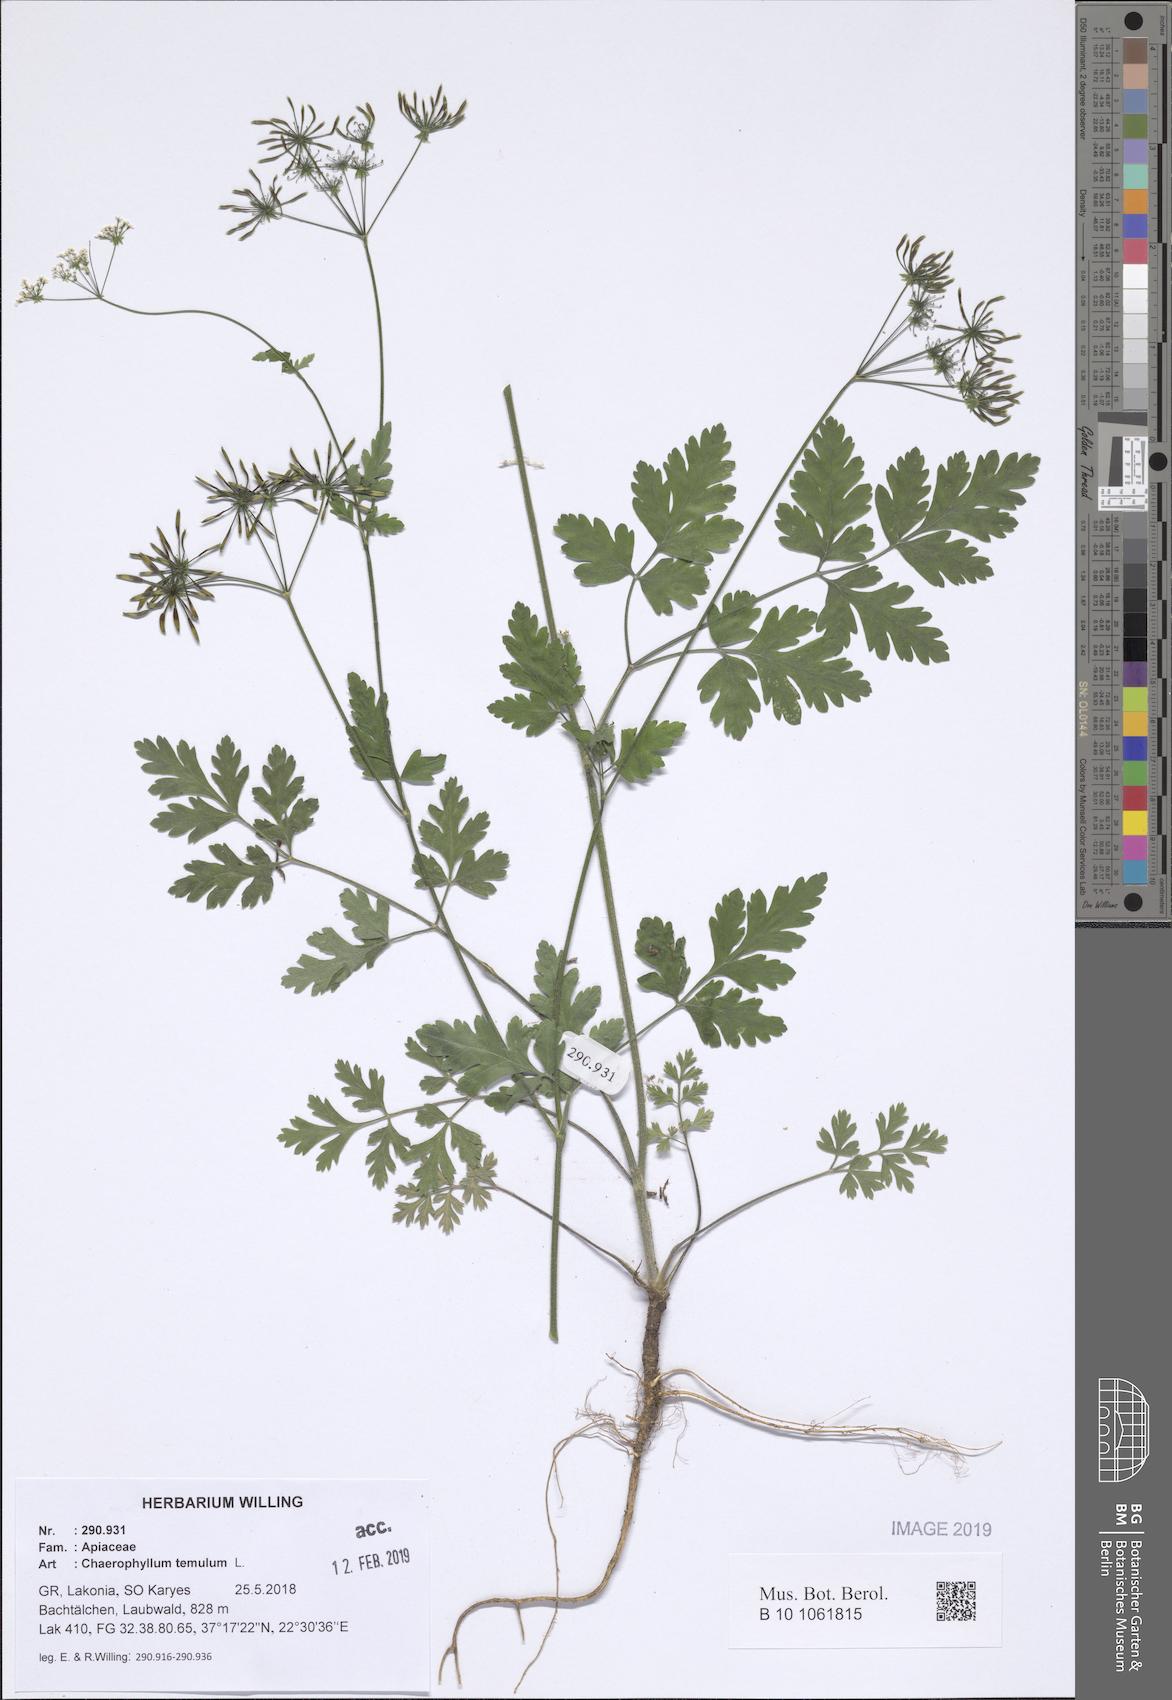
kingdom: Plantae
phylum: Tracheophyta
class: Magnoliopsida
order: Apiales
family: Apiaceae
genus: Chaerophyllum
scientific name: Chaerophyllum temulum
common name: Rough chervil
